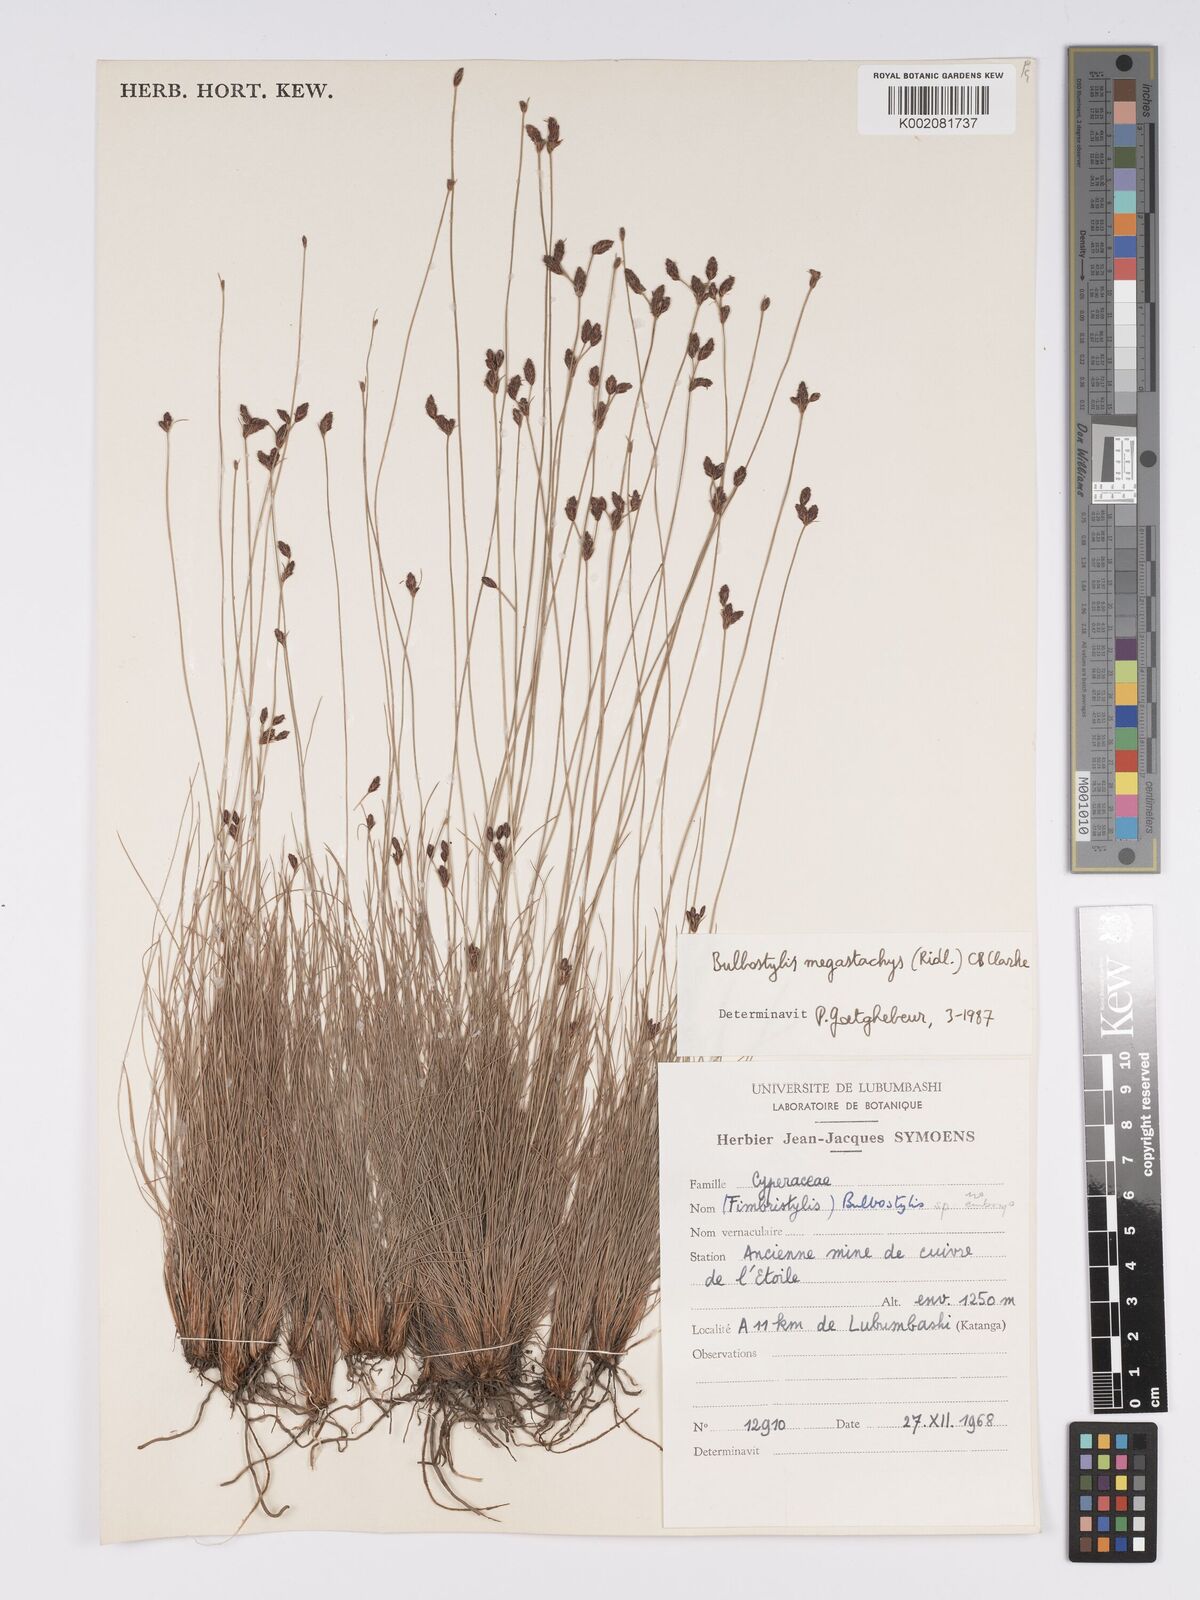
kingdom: Plantae
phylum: Tracheophyta
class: Liliopsida
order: Poales
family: Cyperaceae
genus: Bulbostylis
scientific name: Bulbostylis schoenoides
